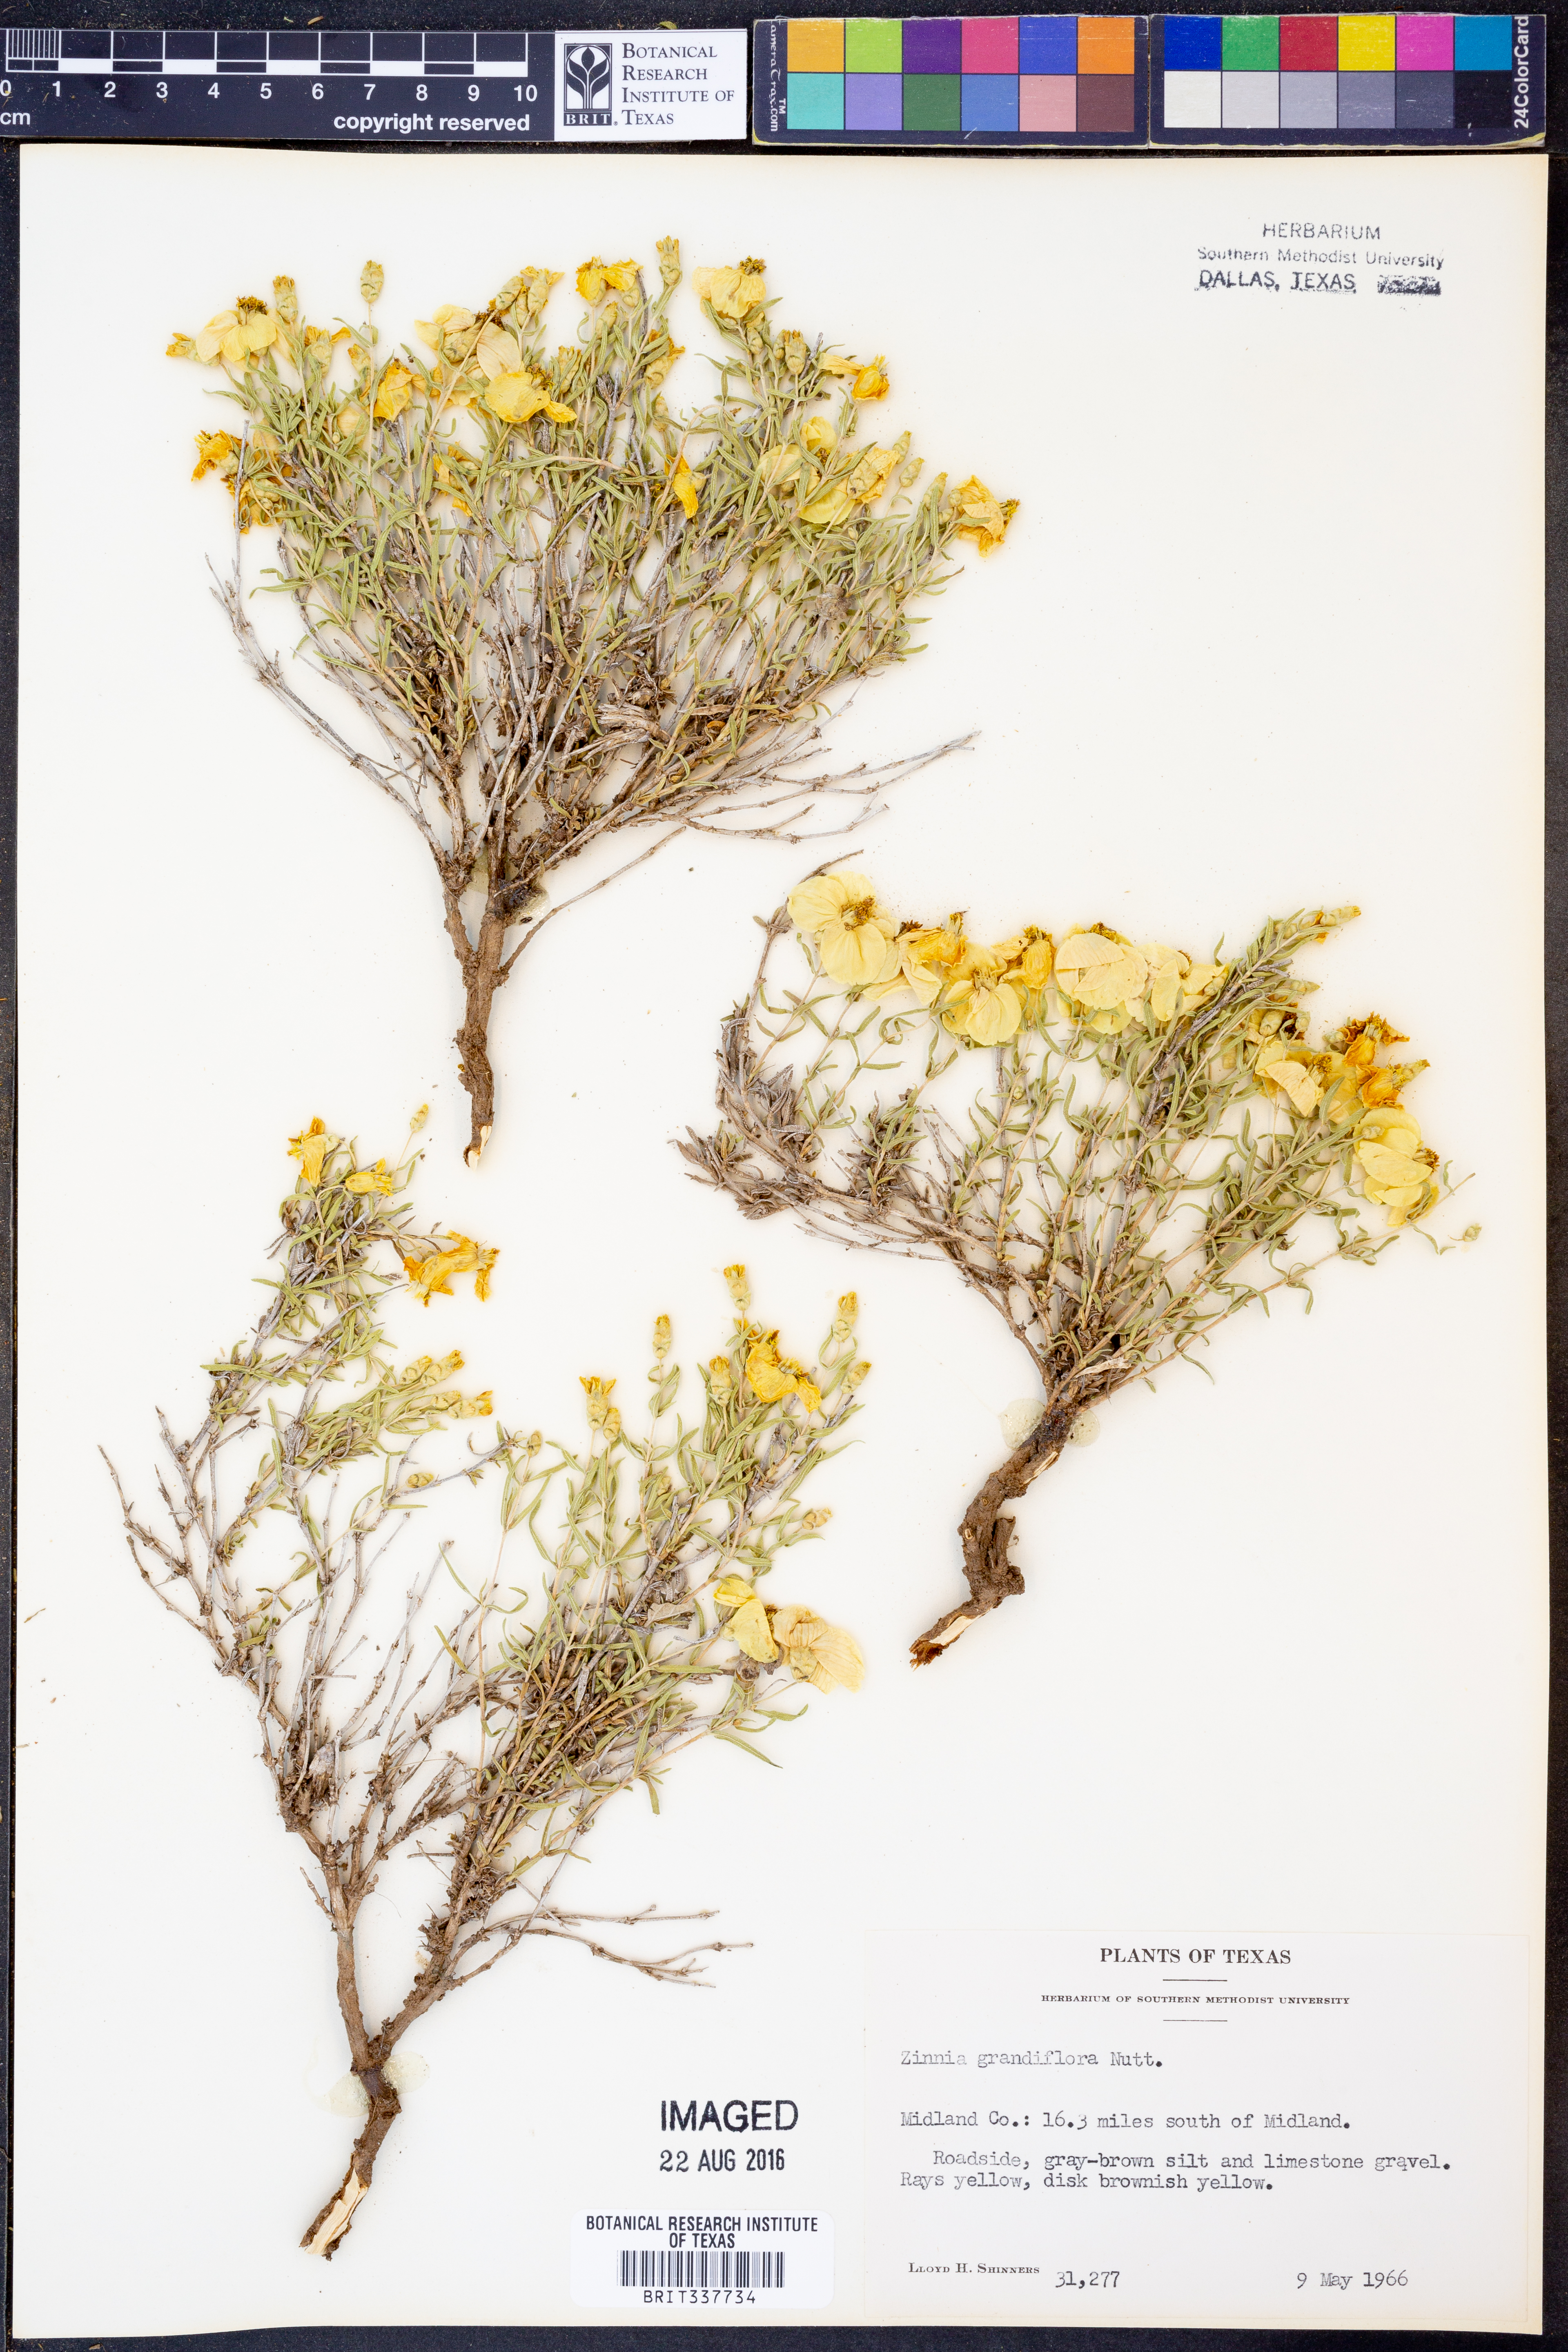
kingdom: Plantae
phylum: Tracheophyta
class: Magnoliopsida
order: Asterales
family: Asteraceae
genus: Zinnia
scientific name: Zinnia grandiflora
